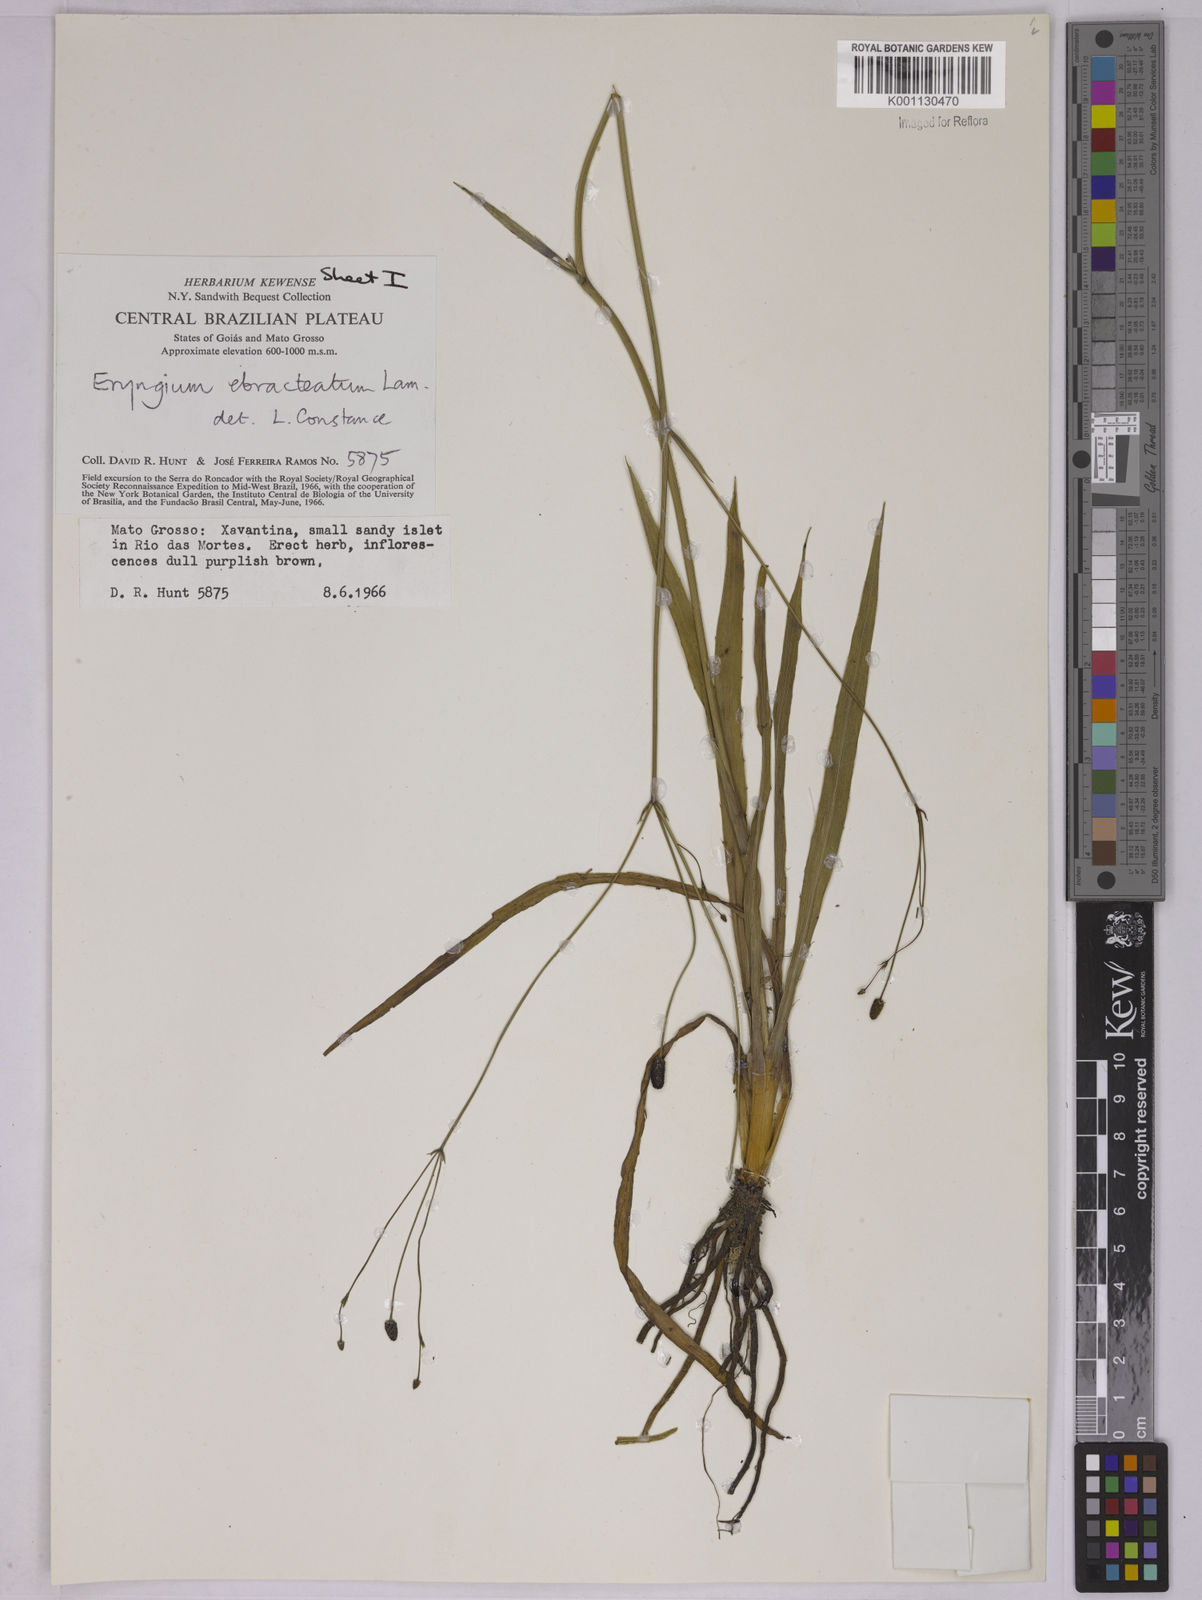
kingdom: Plantae
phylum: Tracheophyta
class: Magnoliopsida
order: Apiales
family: Apiaceae
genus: Eryngium
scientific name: Eryngium ebracteatum
